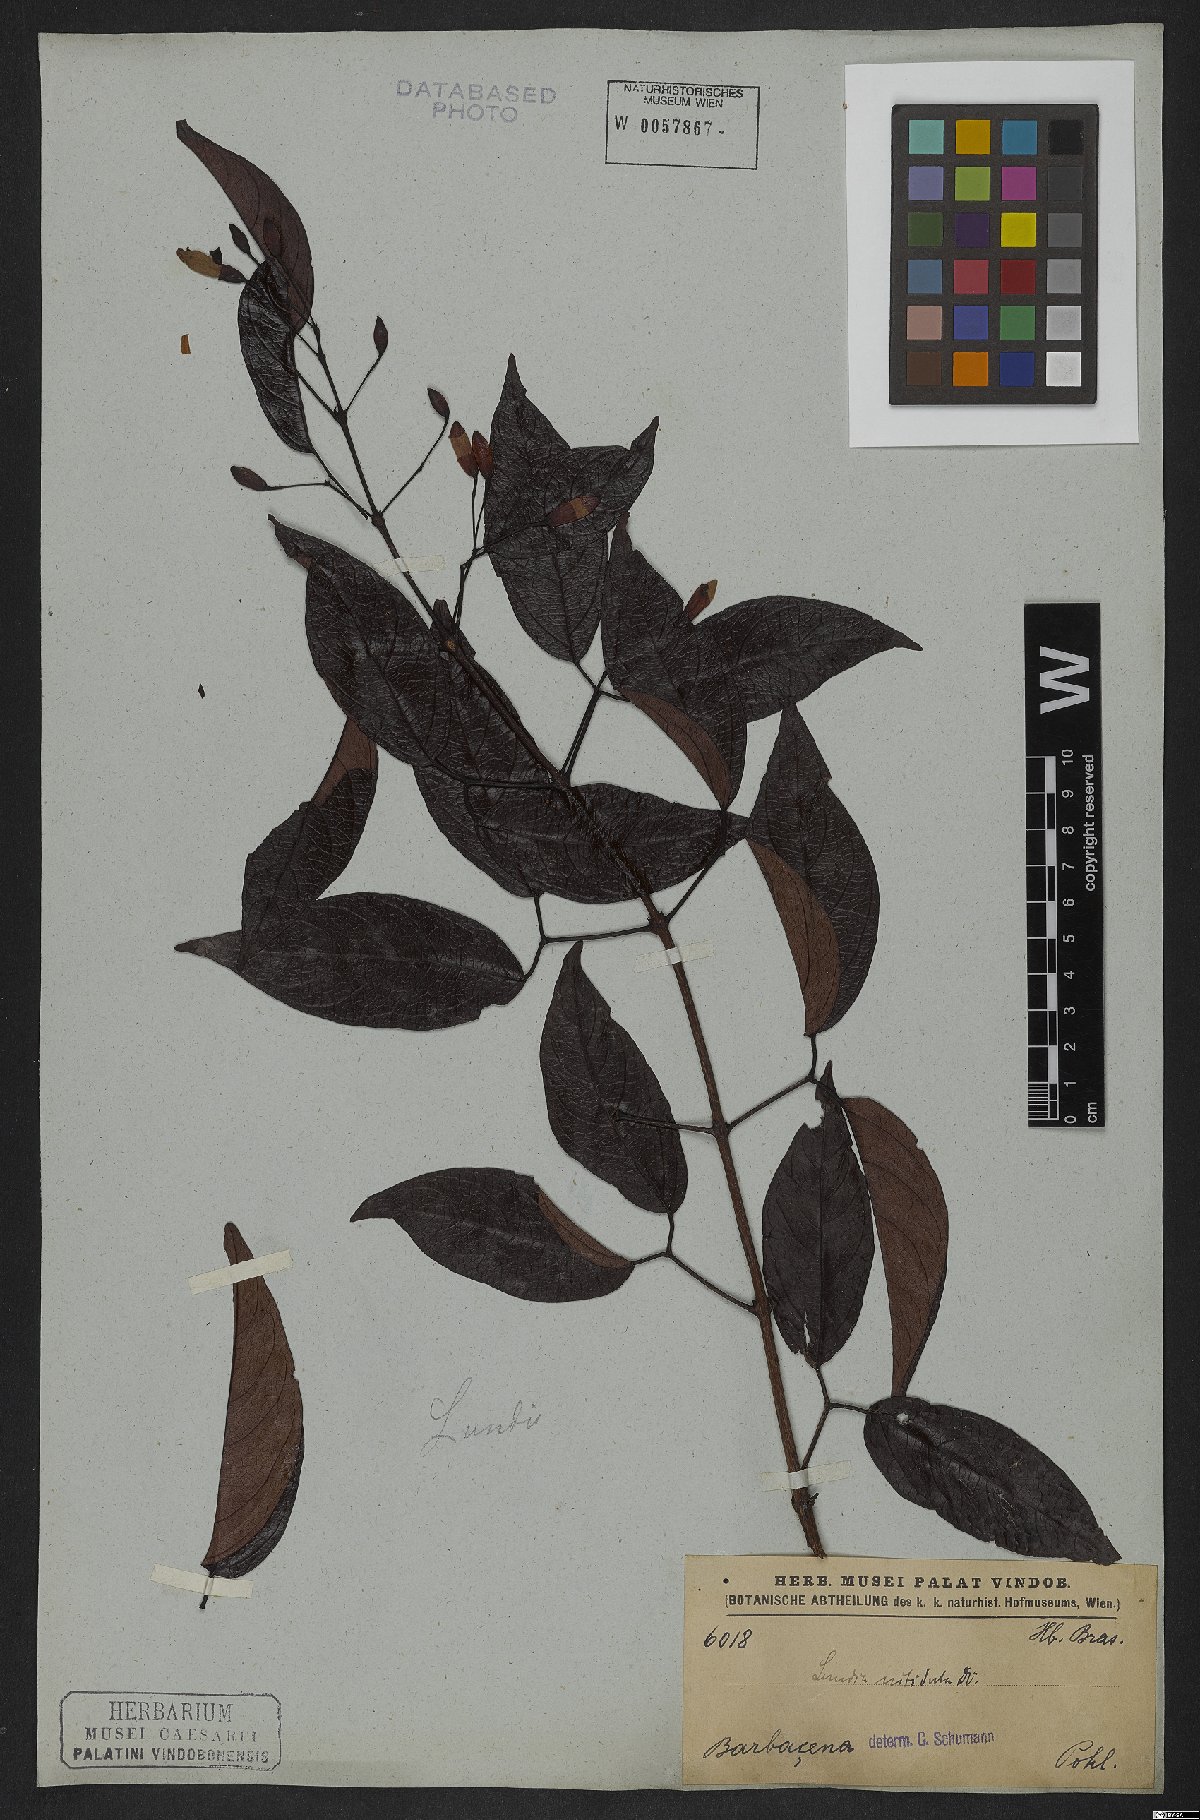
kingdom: Plantae
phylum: Tracheophyta
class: Magnoliopsida
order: Lamiales
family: Bignoniaceae
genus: Lundia
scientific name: Lundia nitidula
